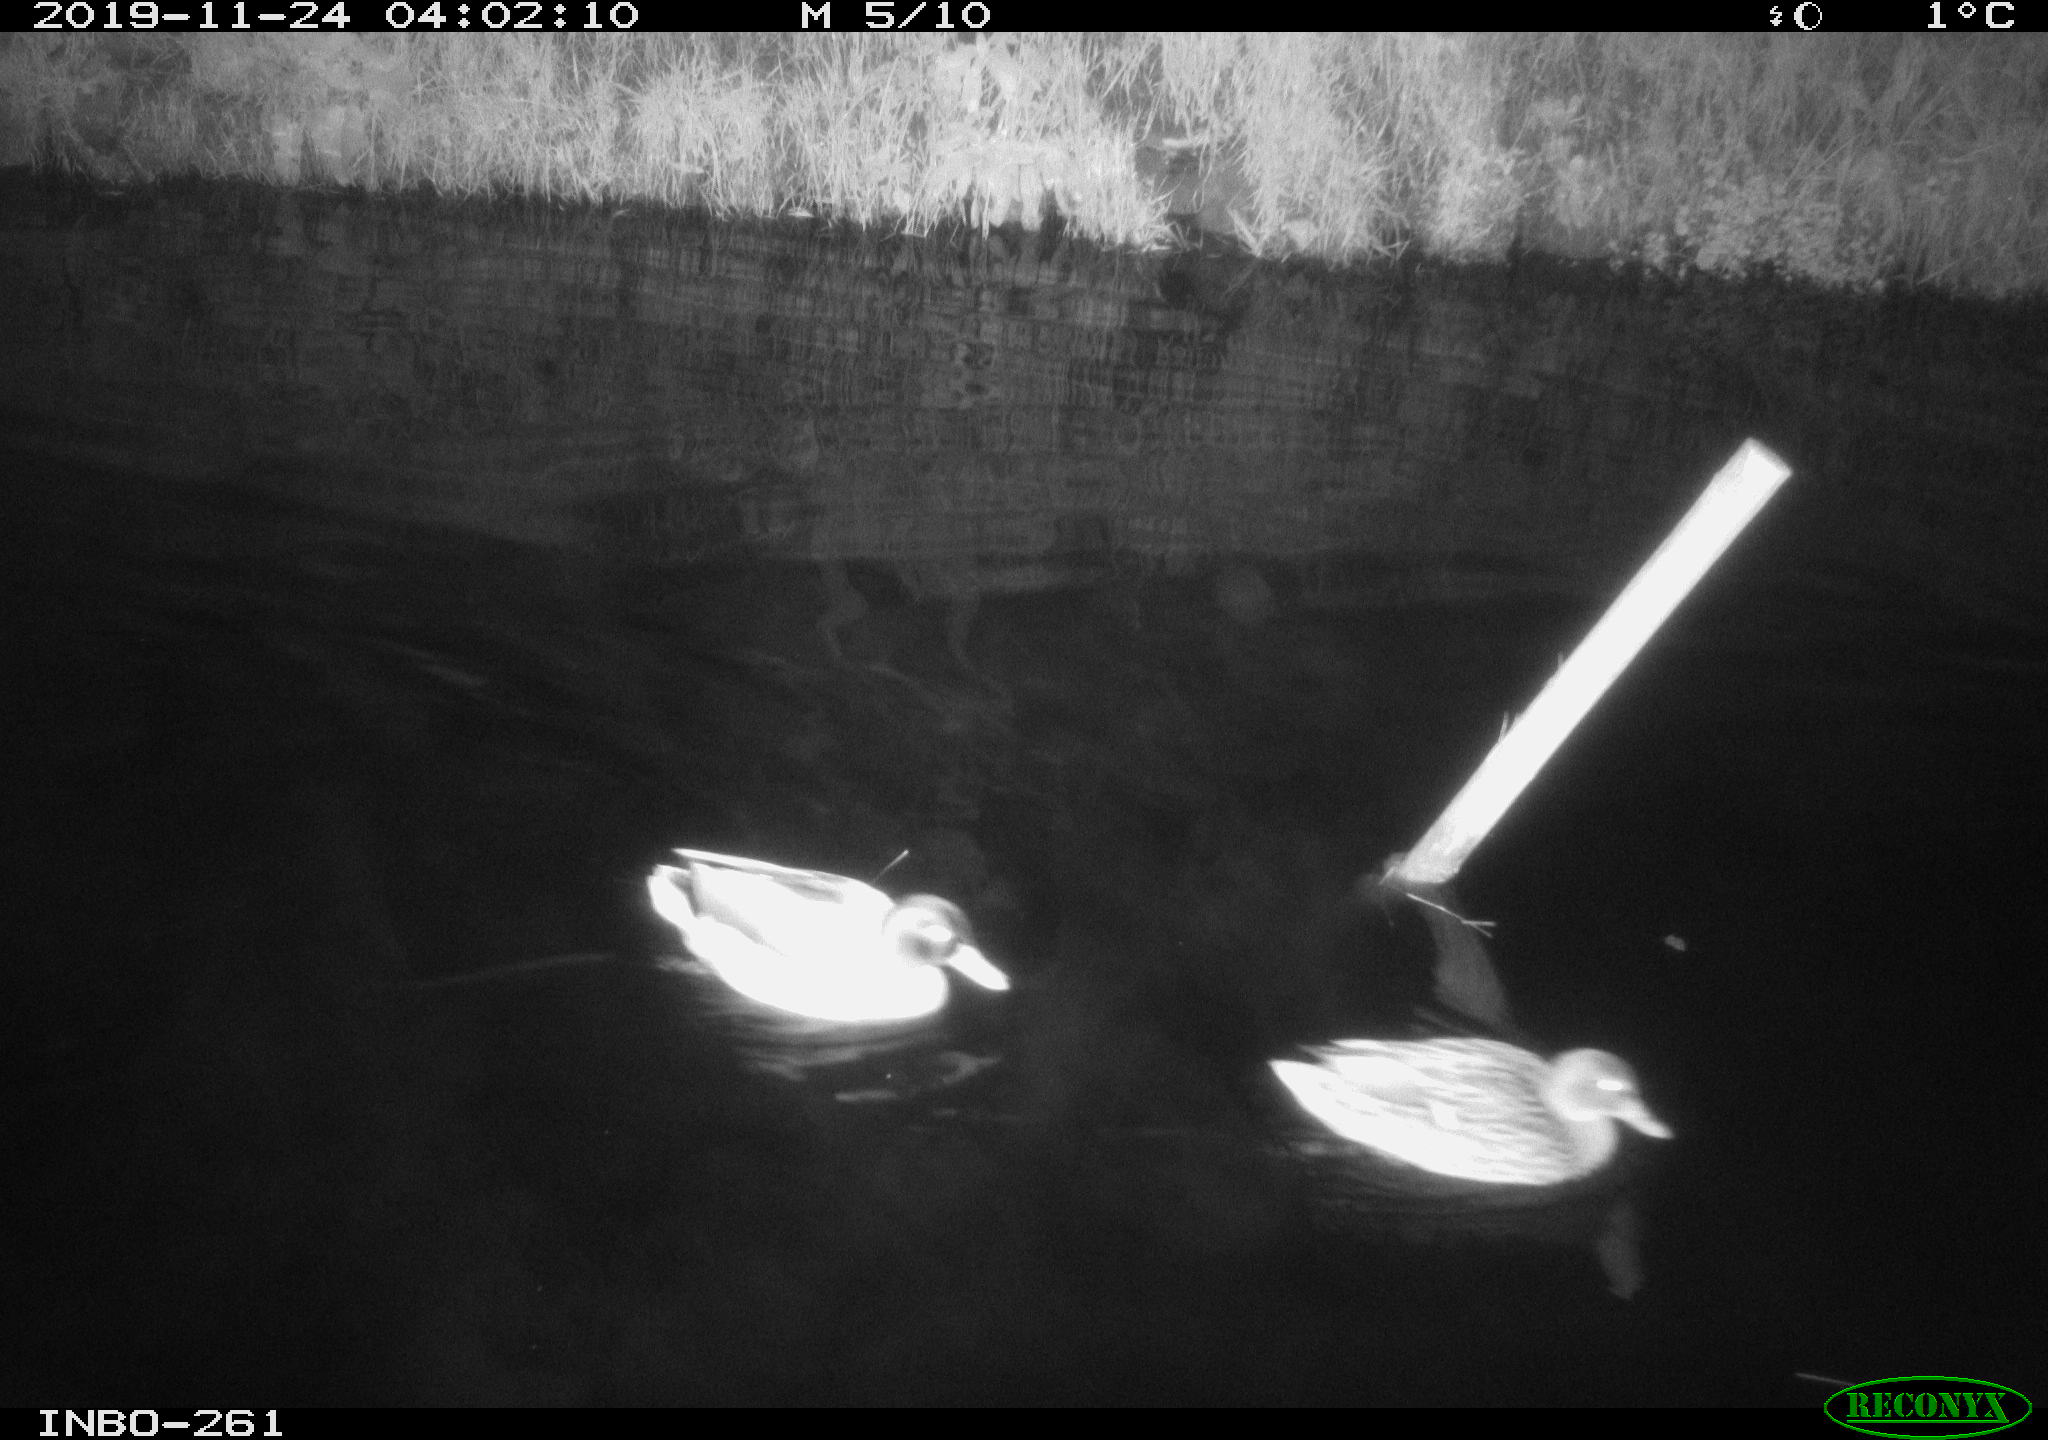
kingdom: Animalia
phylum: Chordata
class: Aves
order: Anseriformes
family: Anatidae
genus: Anas
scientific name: Anas platyrhynchos
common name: Mallard
